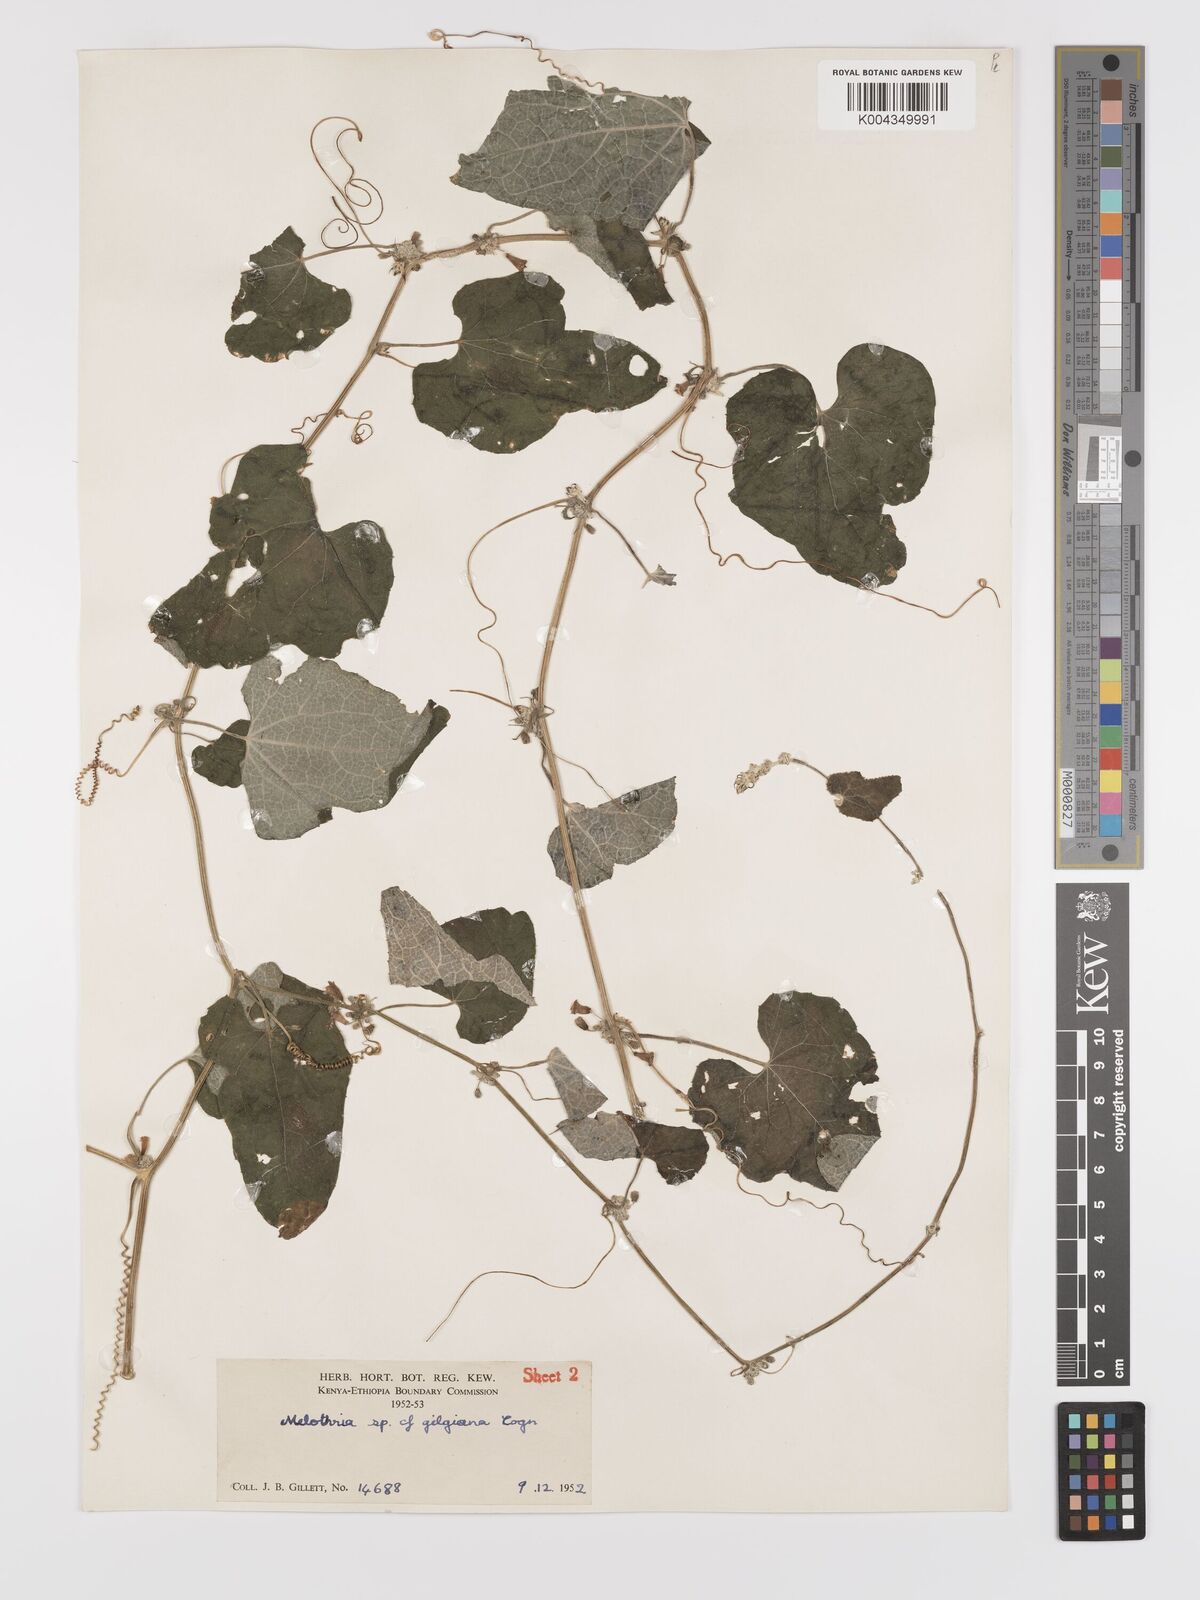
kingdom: Plantae
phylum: Tracheophyta
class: Magnoliopsida
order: Cucurbitales
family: Cucurbitaceae
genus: Zehneria
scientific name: Zehneria scabra
